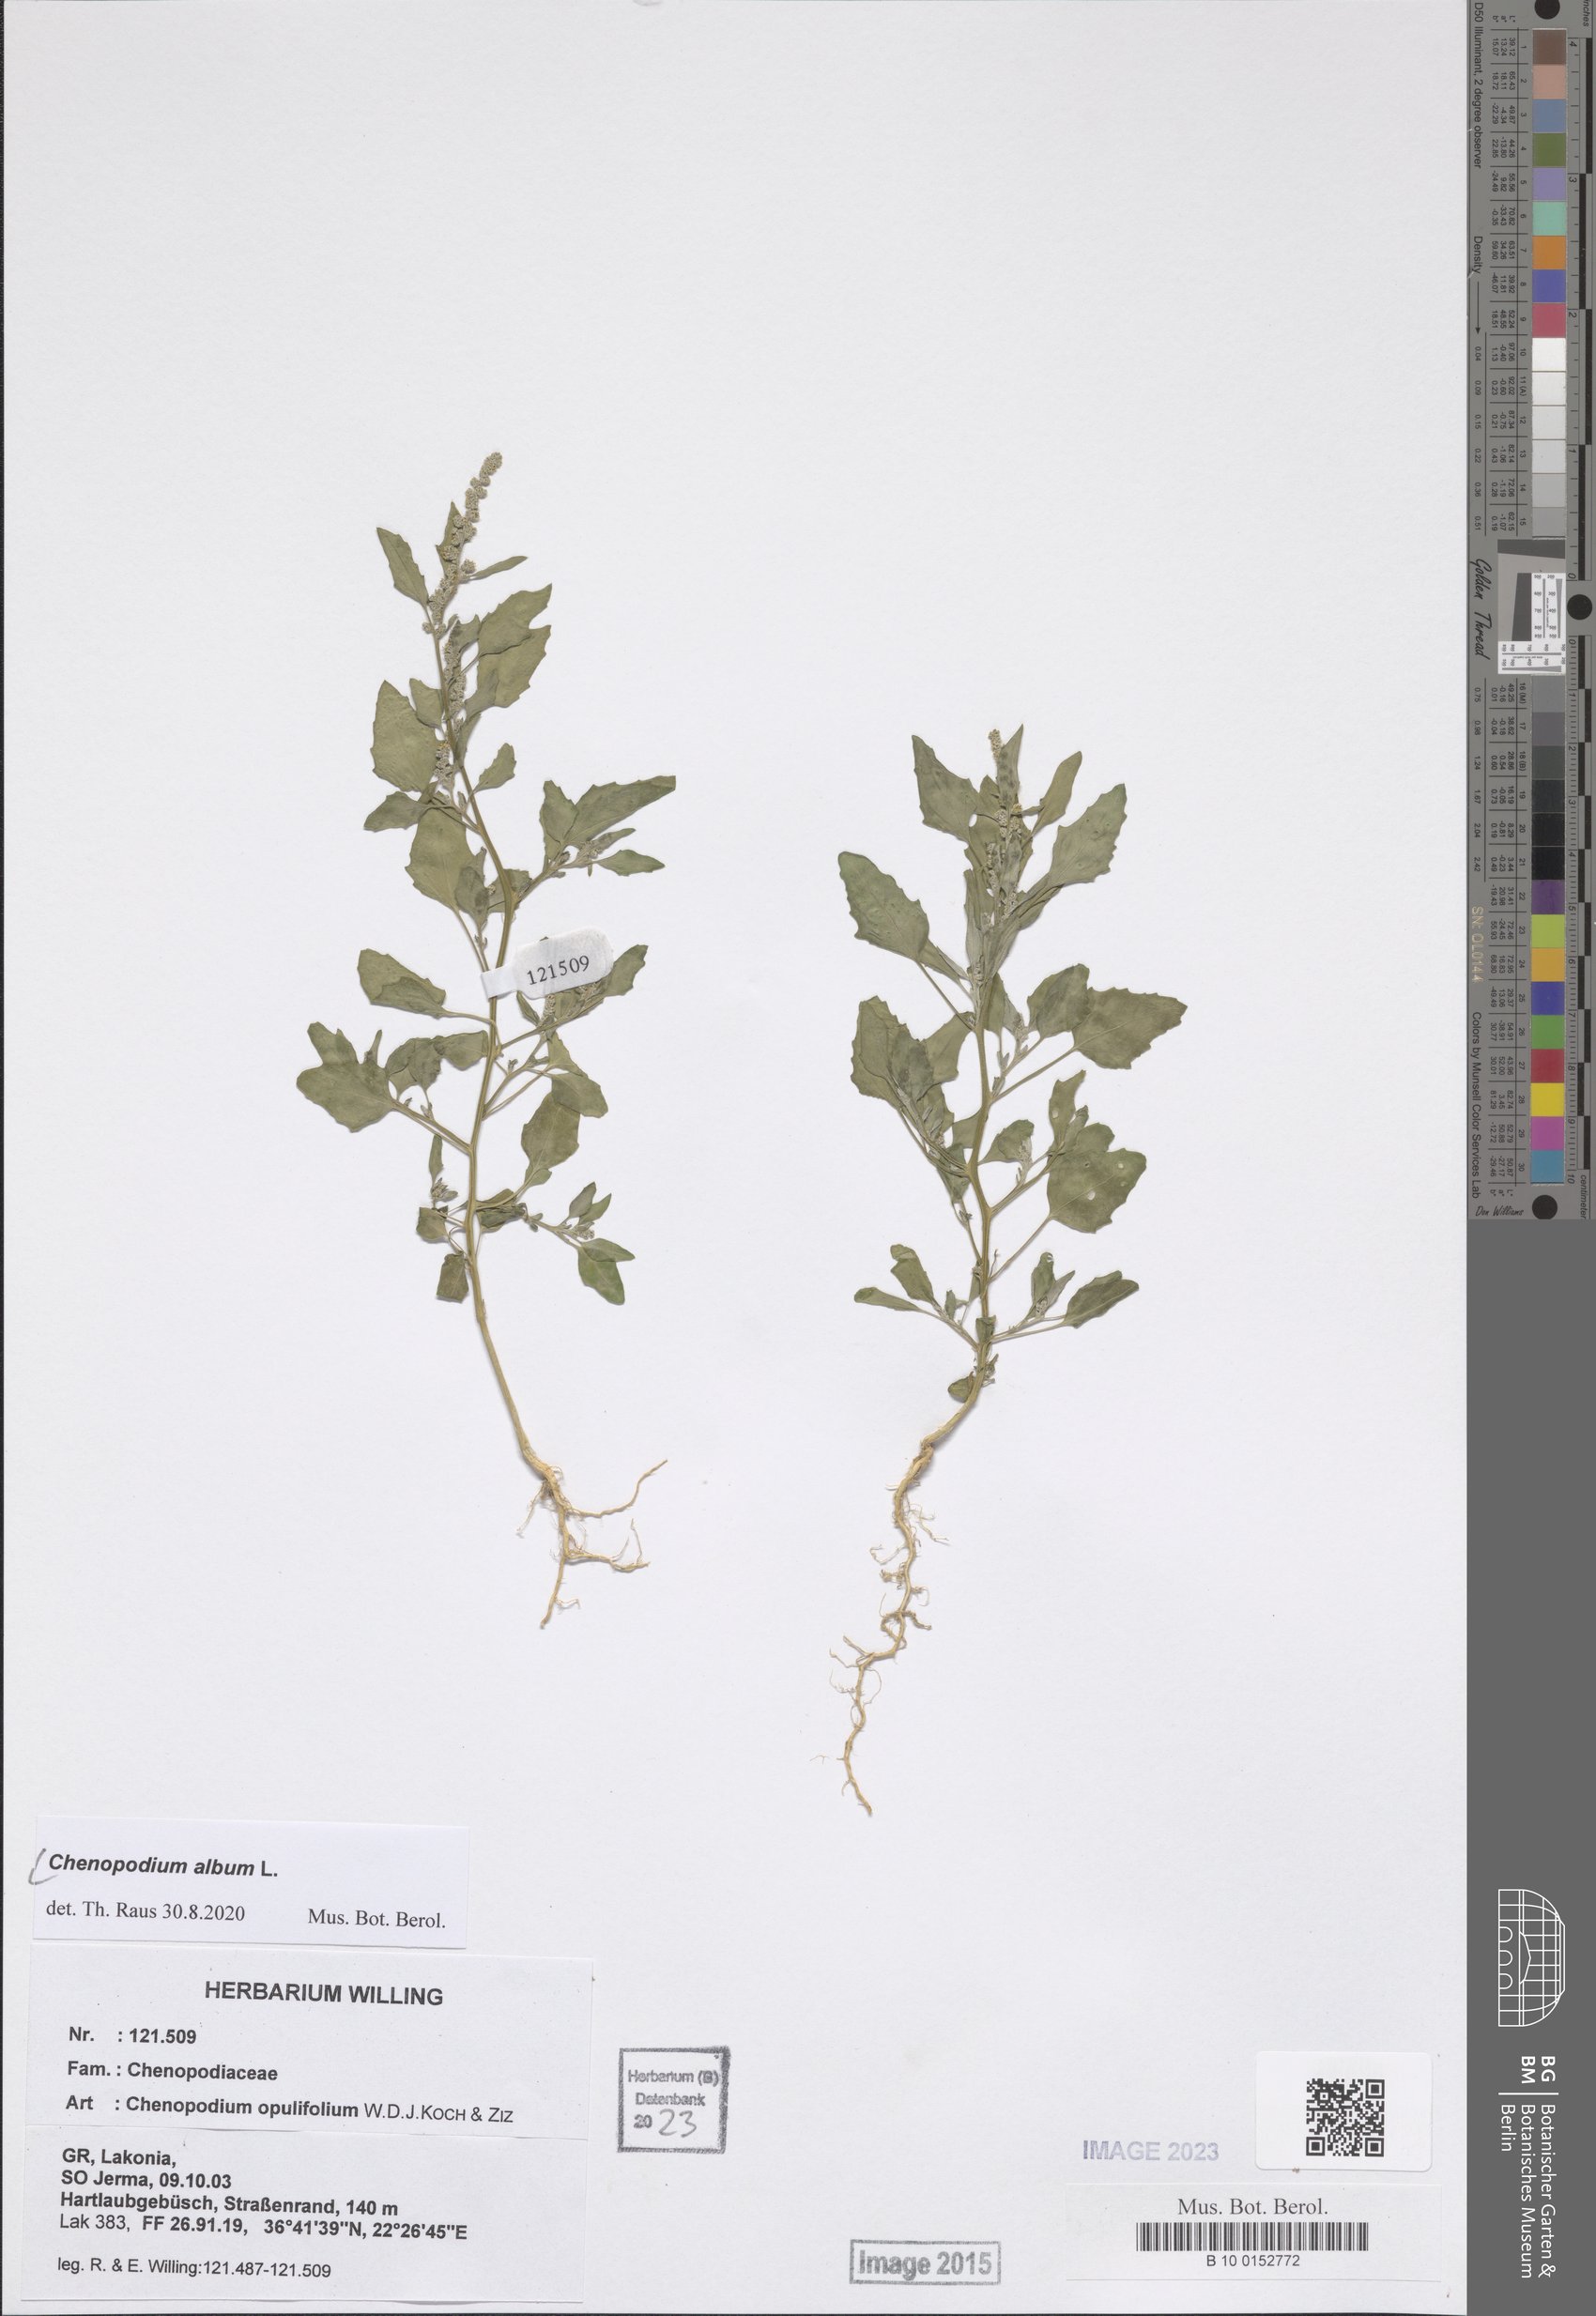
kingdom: Plantae
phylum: Tracheophyta
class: Magnoliopsida
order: Caryophyllales
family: Amaranthaceae
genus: Chenopodium
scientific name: Chenopodium album
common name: Fat-hen
